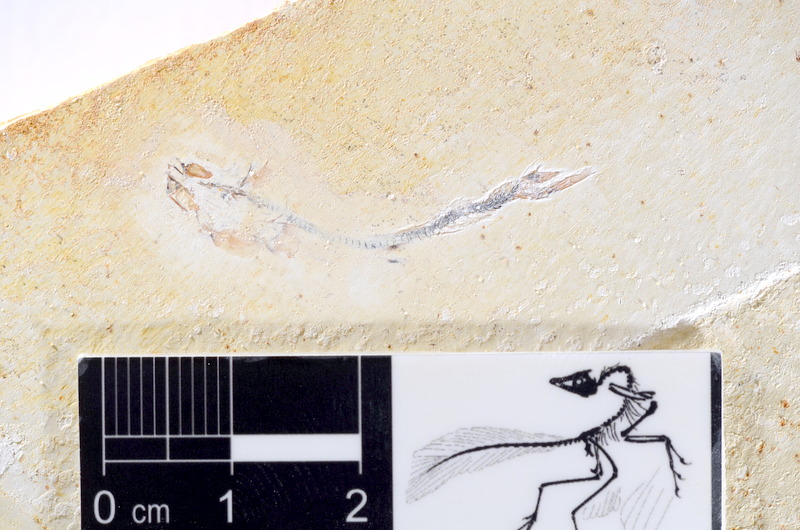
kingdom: Animalia
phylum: Chordata
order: Salmoniformes
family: Orthogonikleithridae
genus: Orthogonikleithrus
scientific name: Orthogonikleithrus hoelli
